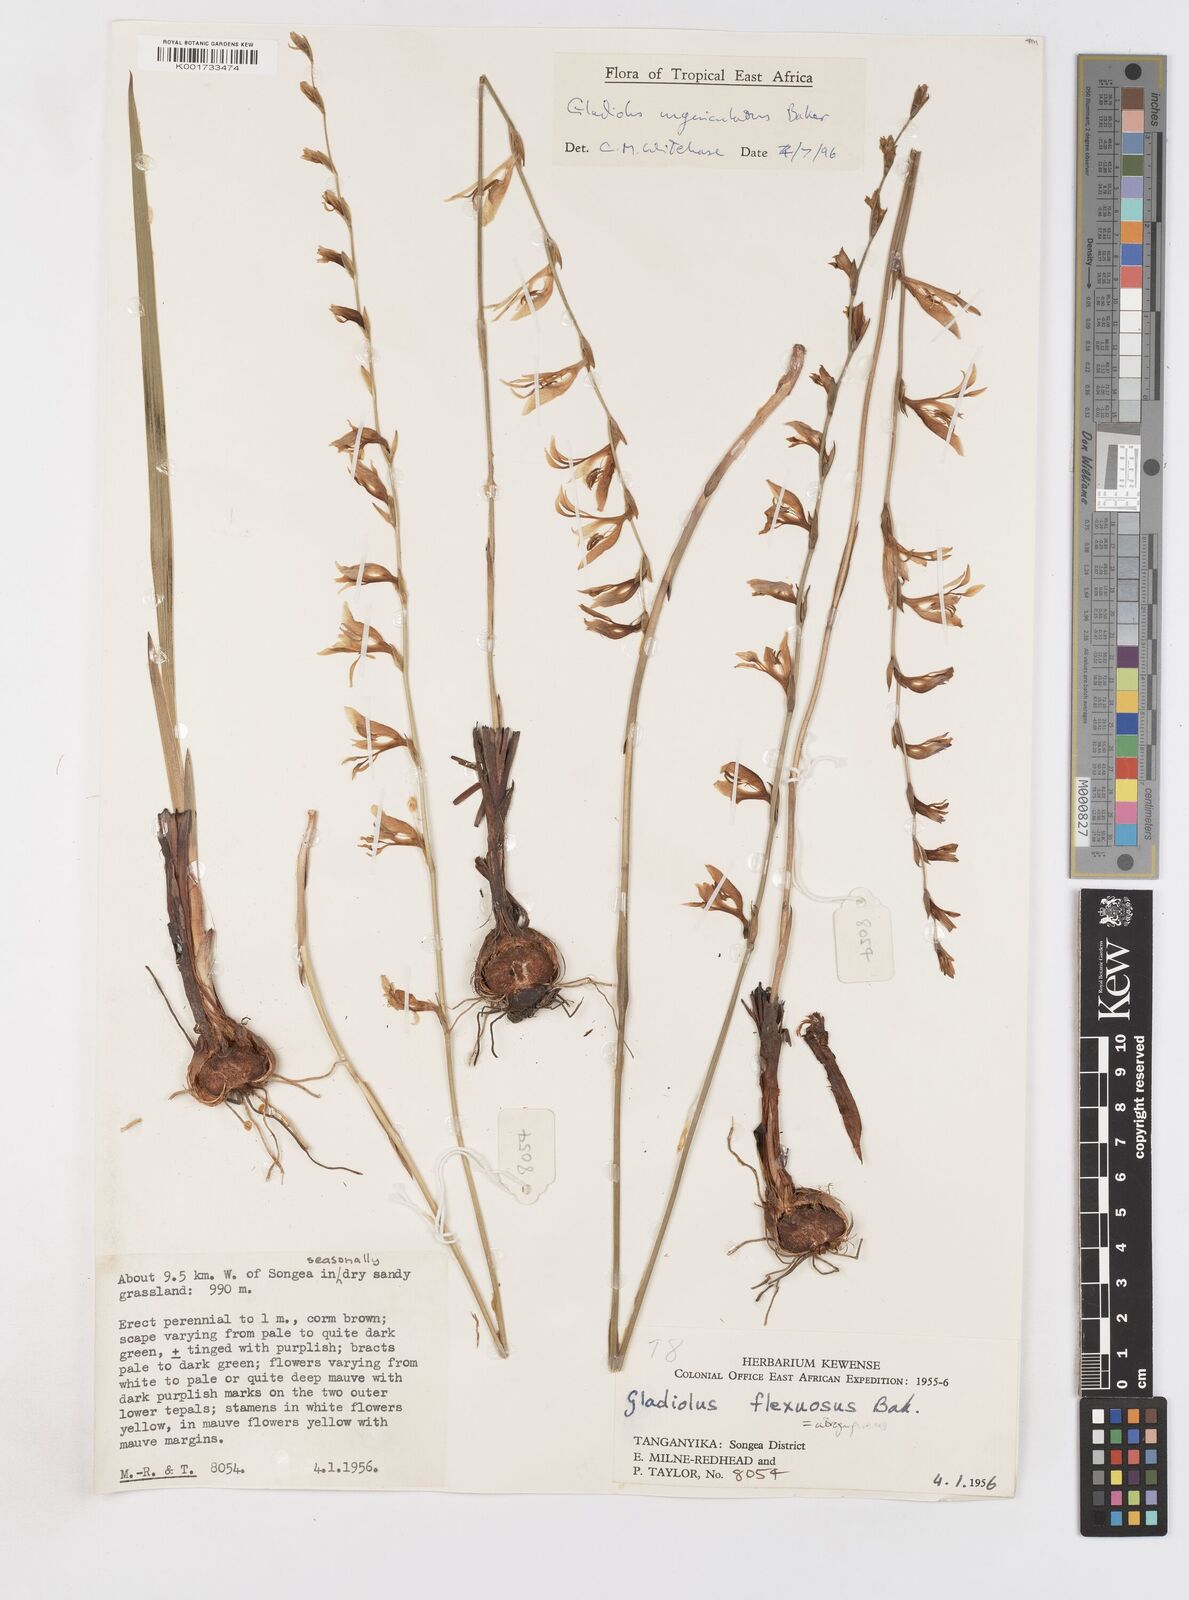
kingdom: Plantae
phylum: Tracheophyta
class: Liliopsida
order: Asparagales
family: Iridaceae
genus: Gladiolus
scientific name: Gladiolus unguiculatus
